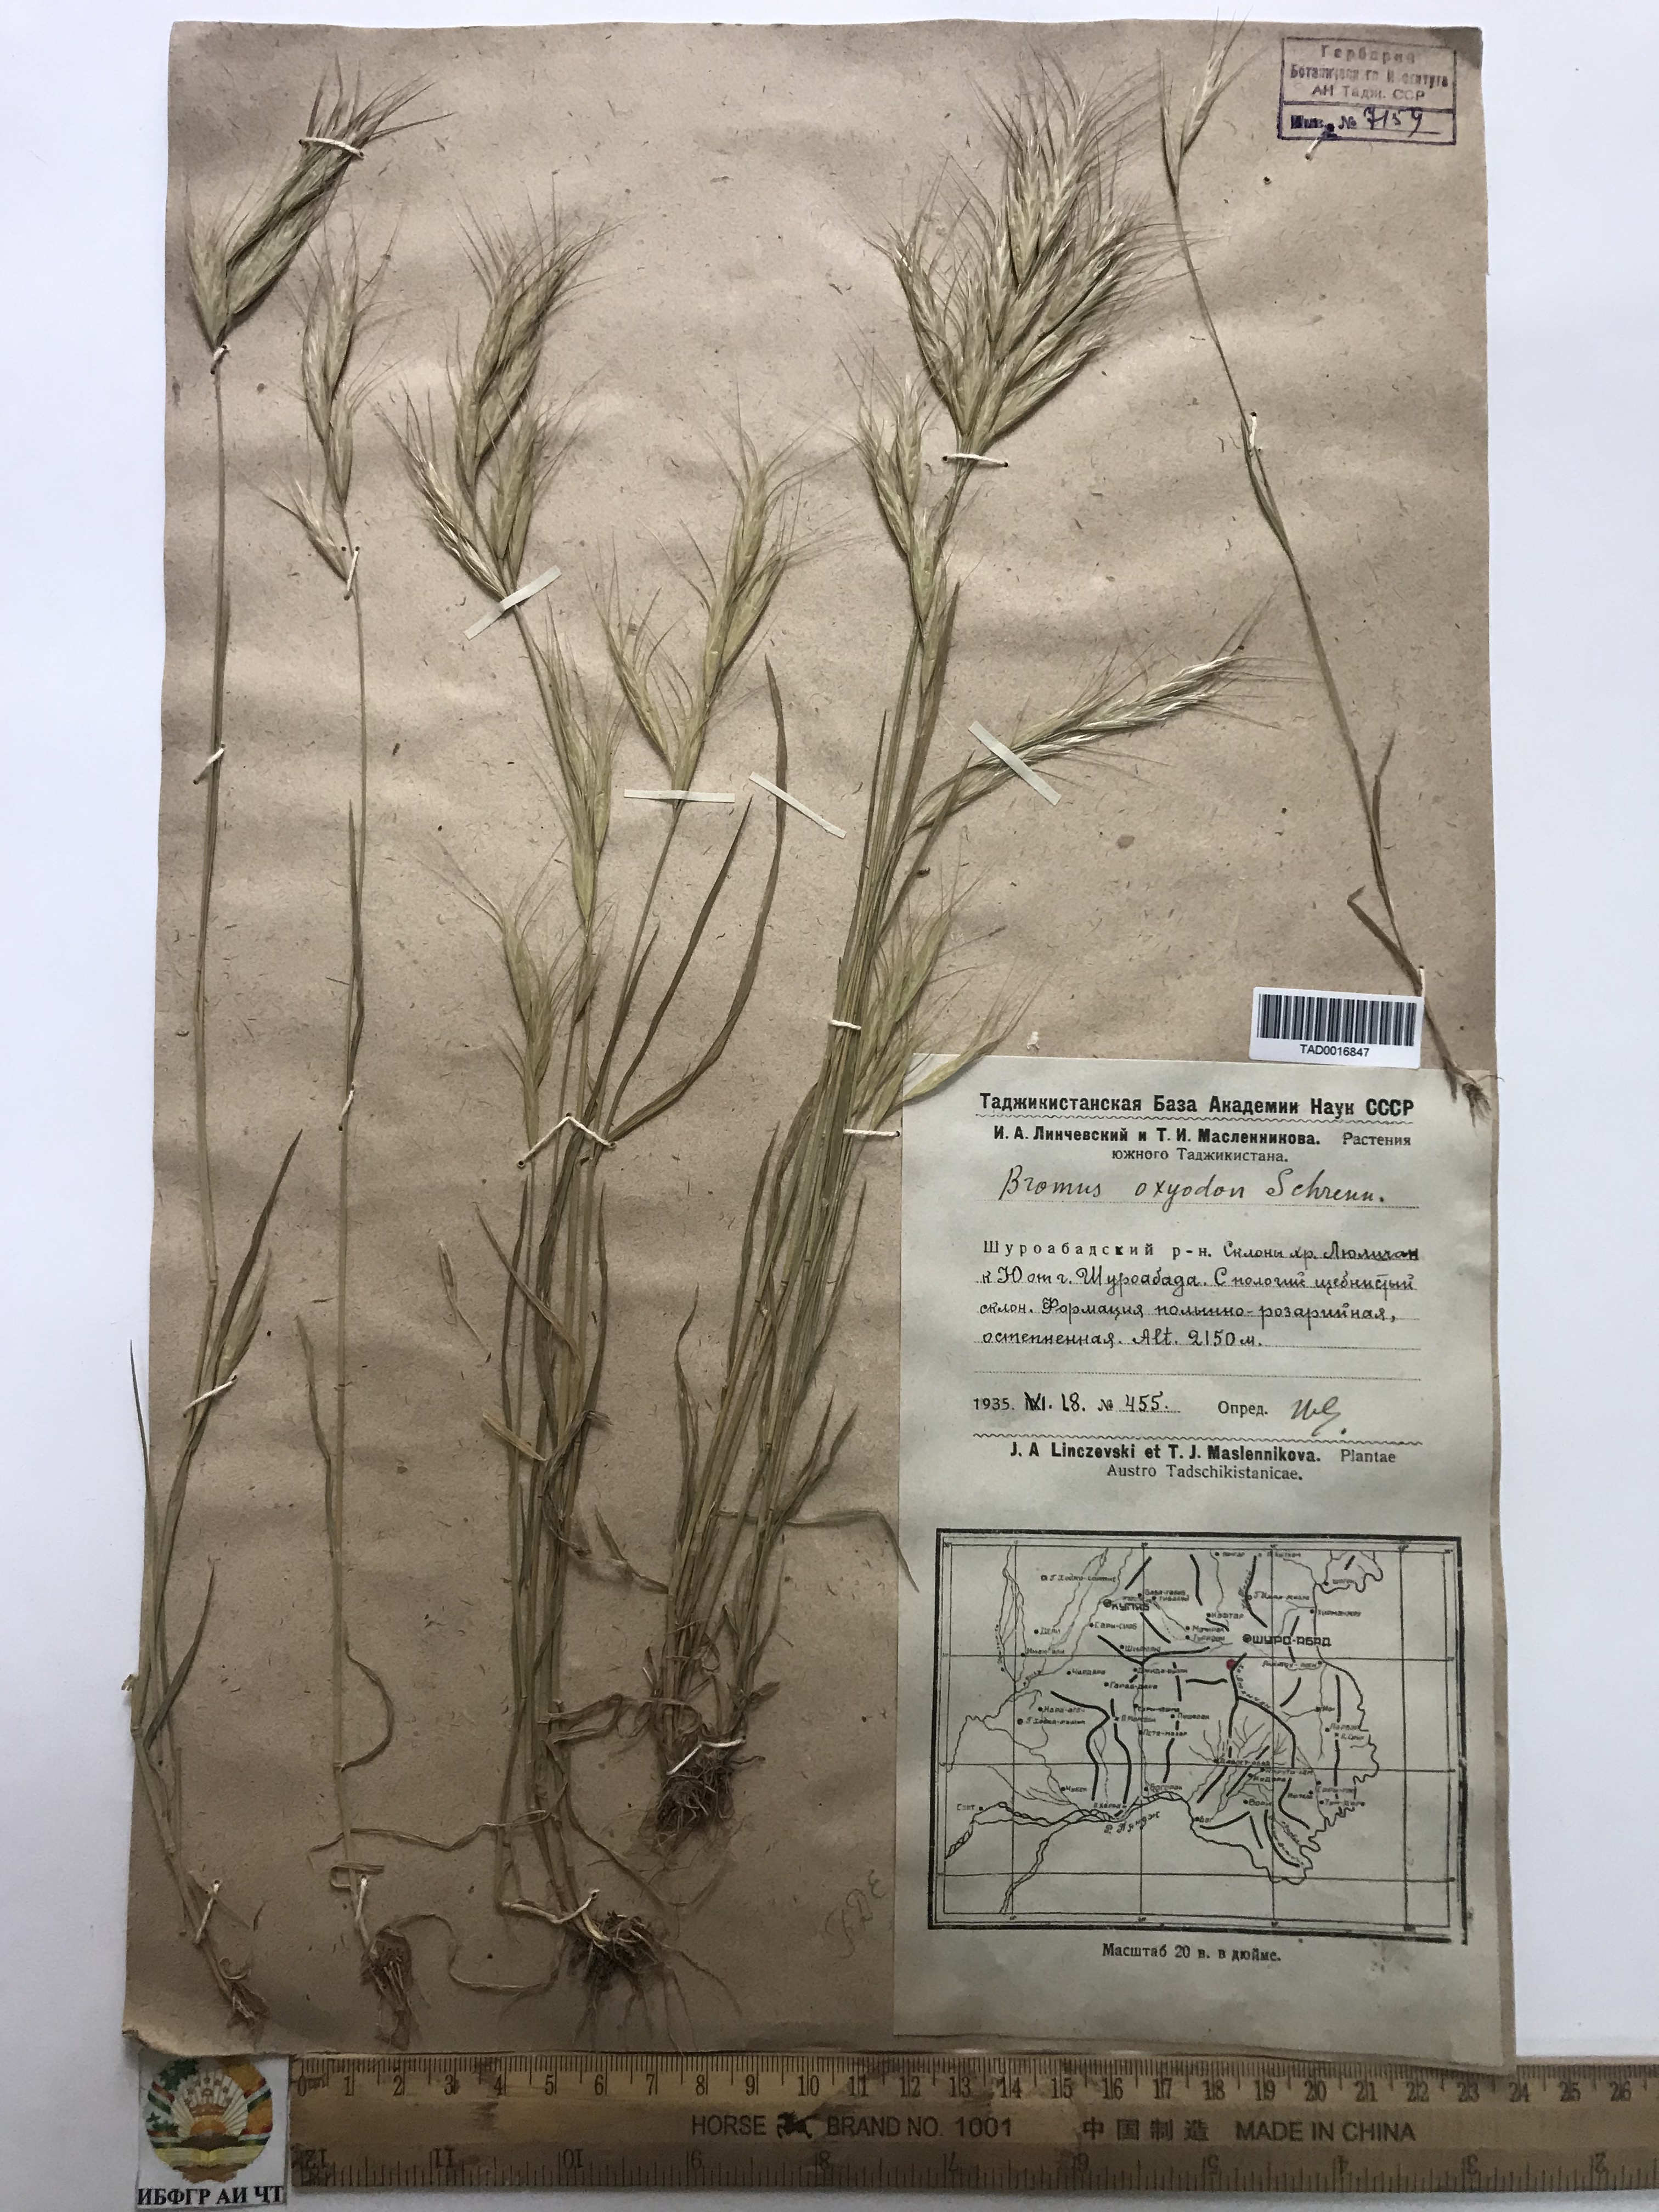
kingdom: Plantae
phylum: Tracheophyta
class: Liliopsida
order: Poales
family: Poaceae
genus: Bromus
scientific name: Bromus oxyodon
